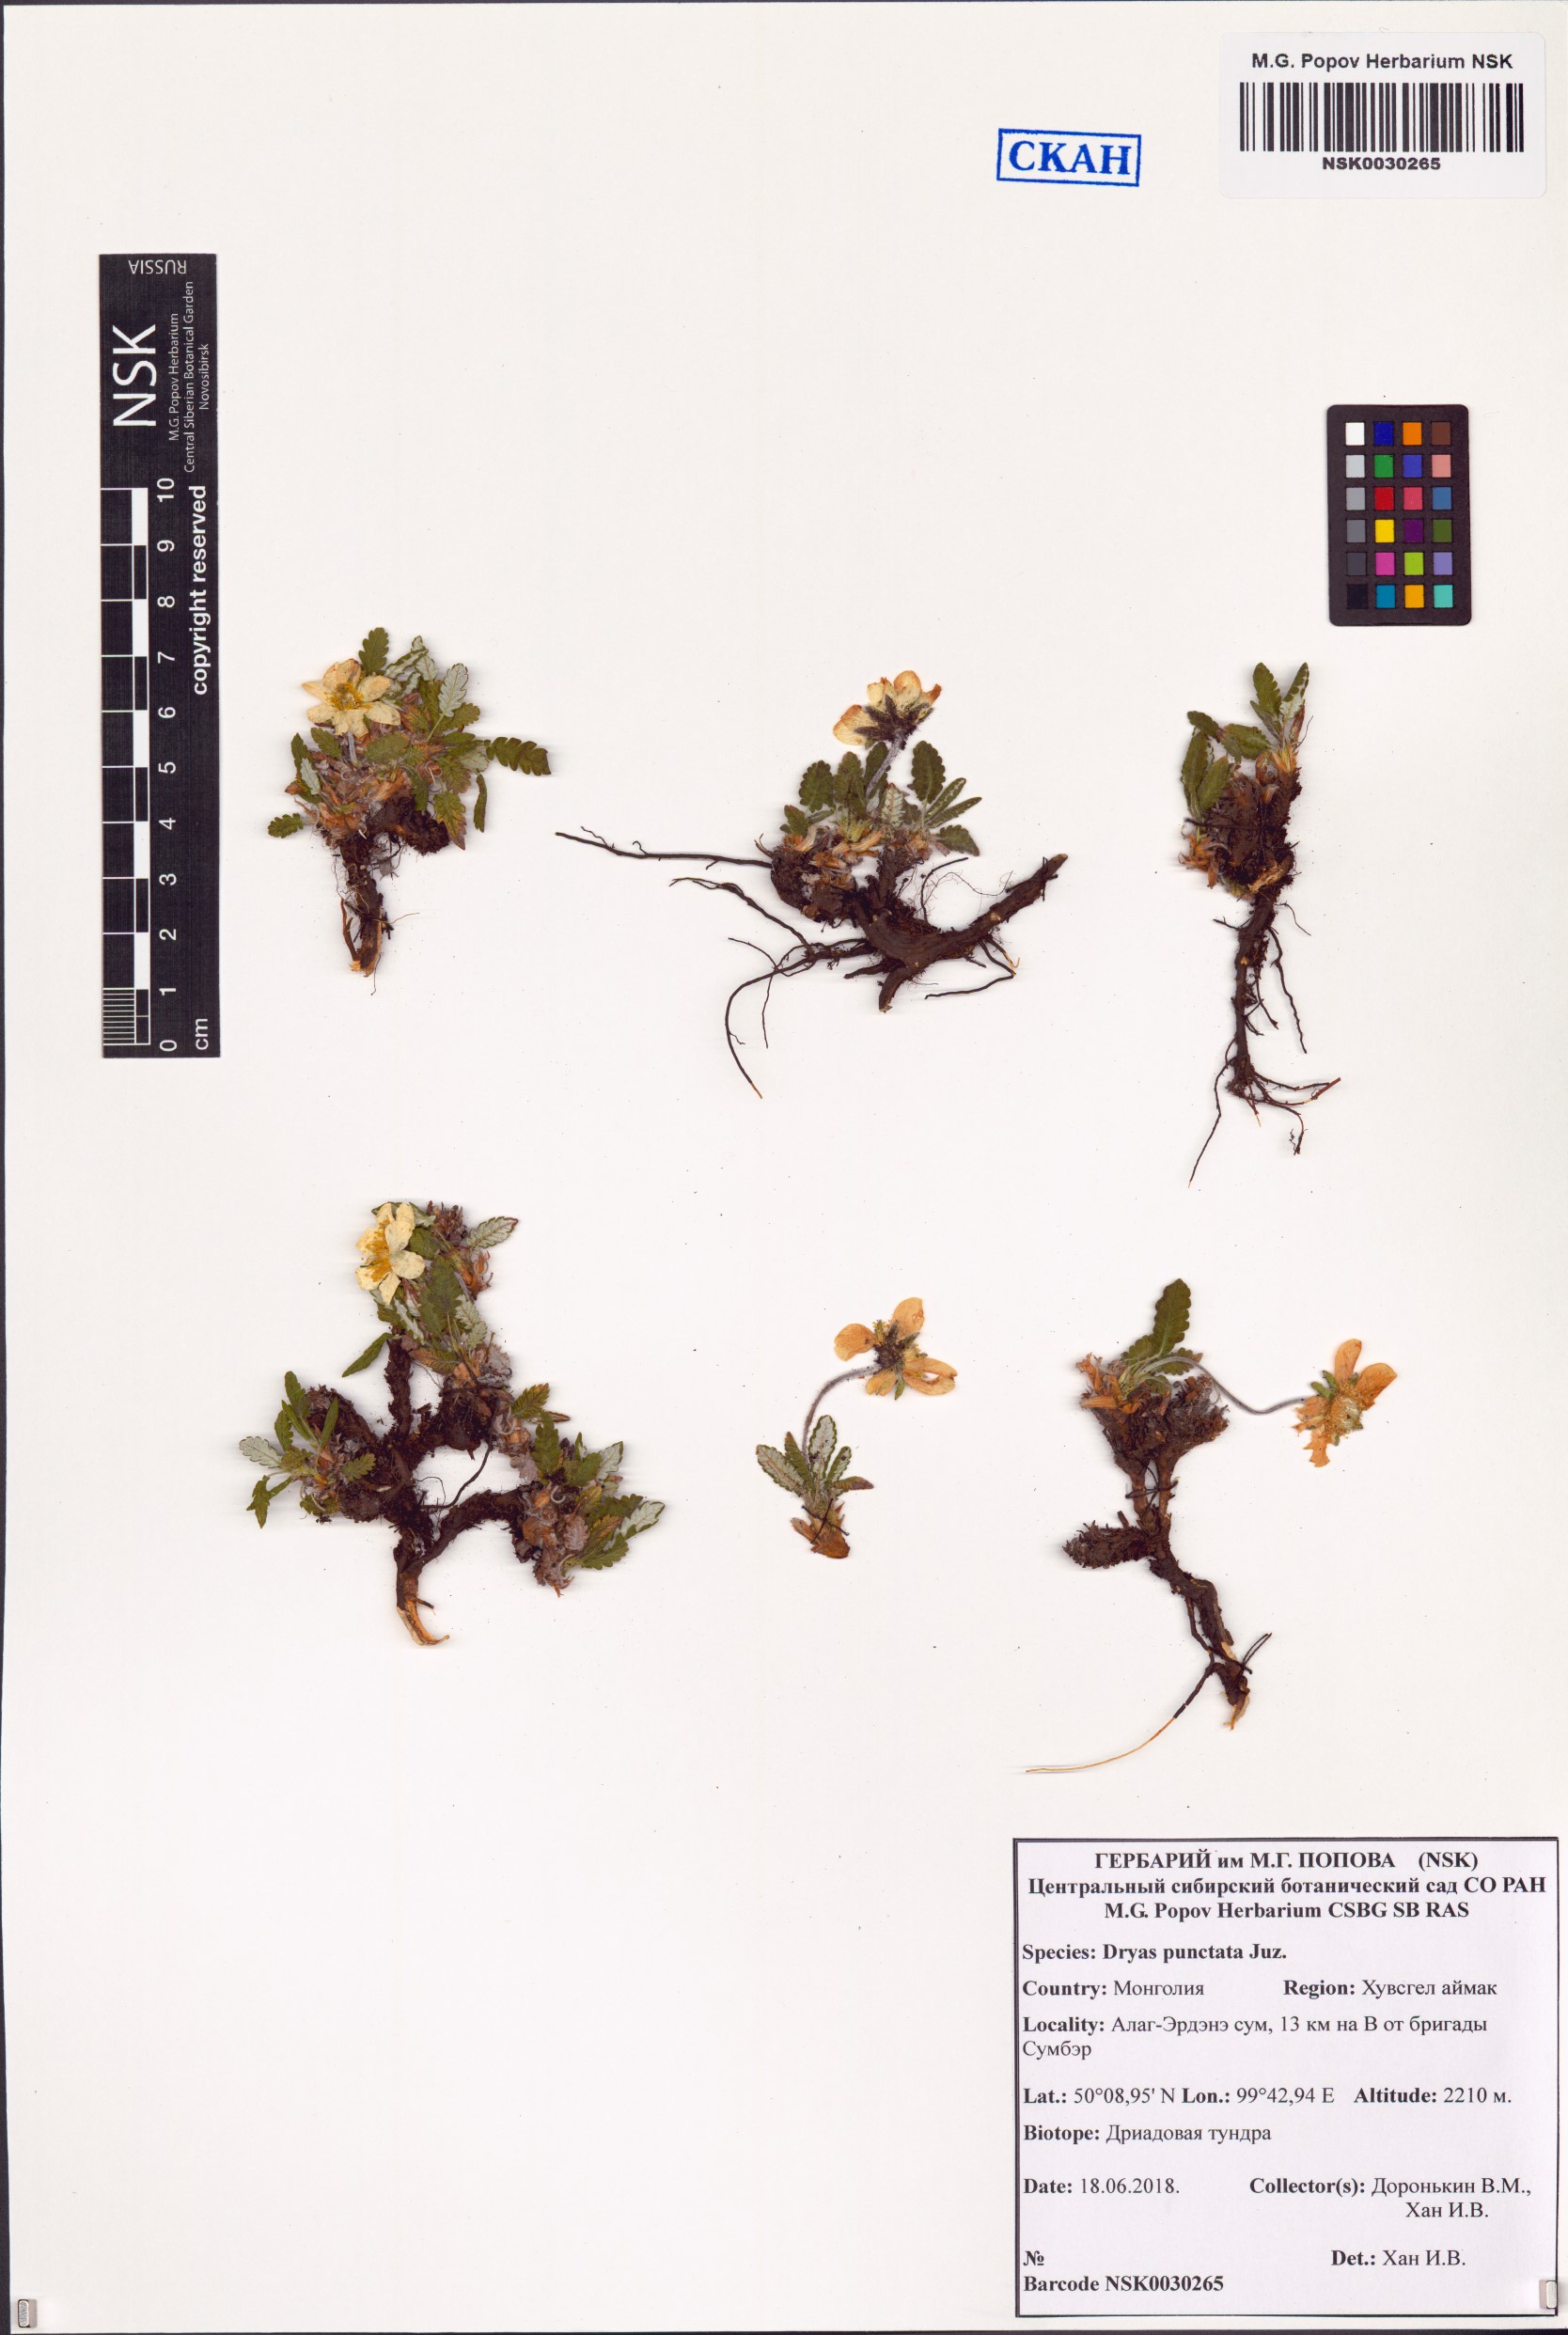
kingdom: Plantae
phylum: Tracheophyta
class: Magnoliopsida
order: Rosales
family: Rosaceae
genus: Dryas
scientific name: Dryas octopetala
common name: Eight-petal mountain-avens
